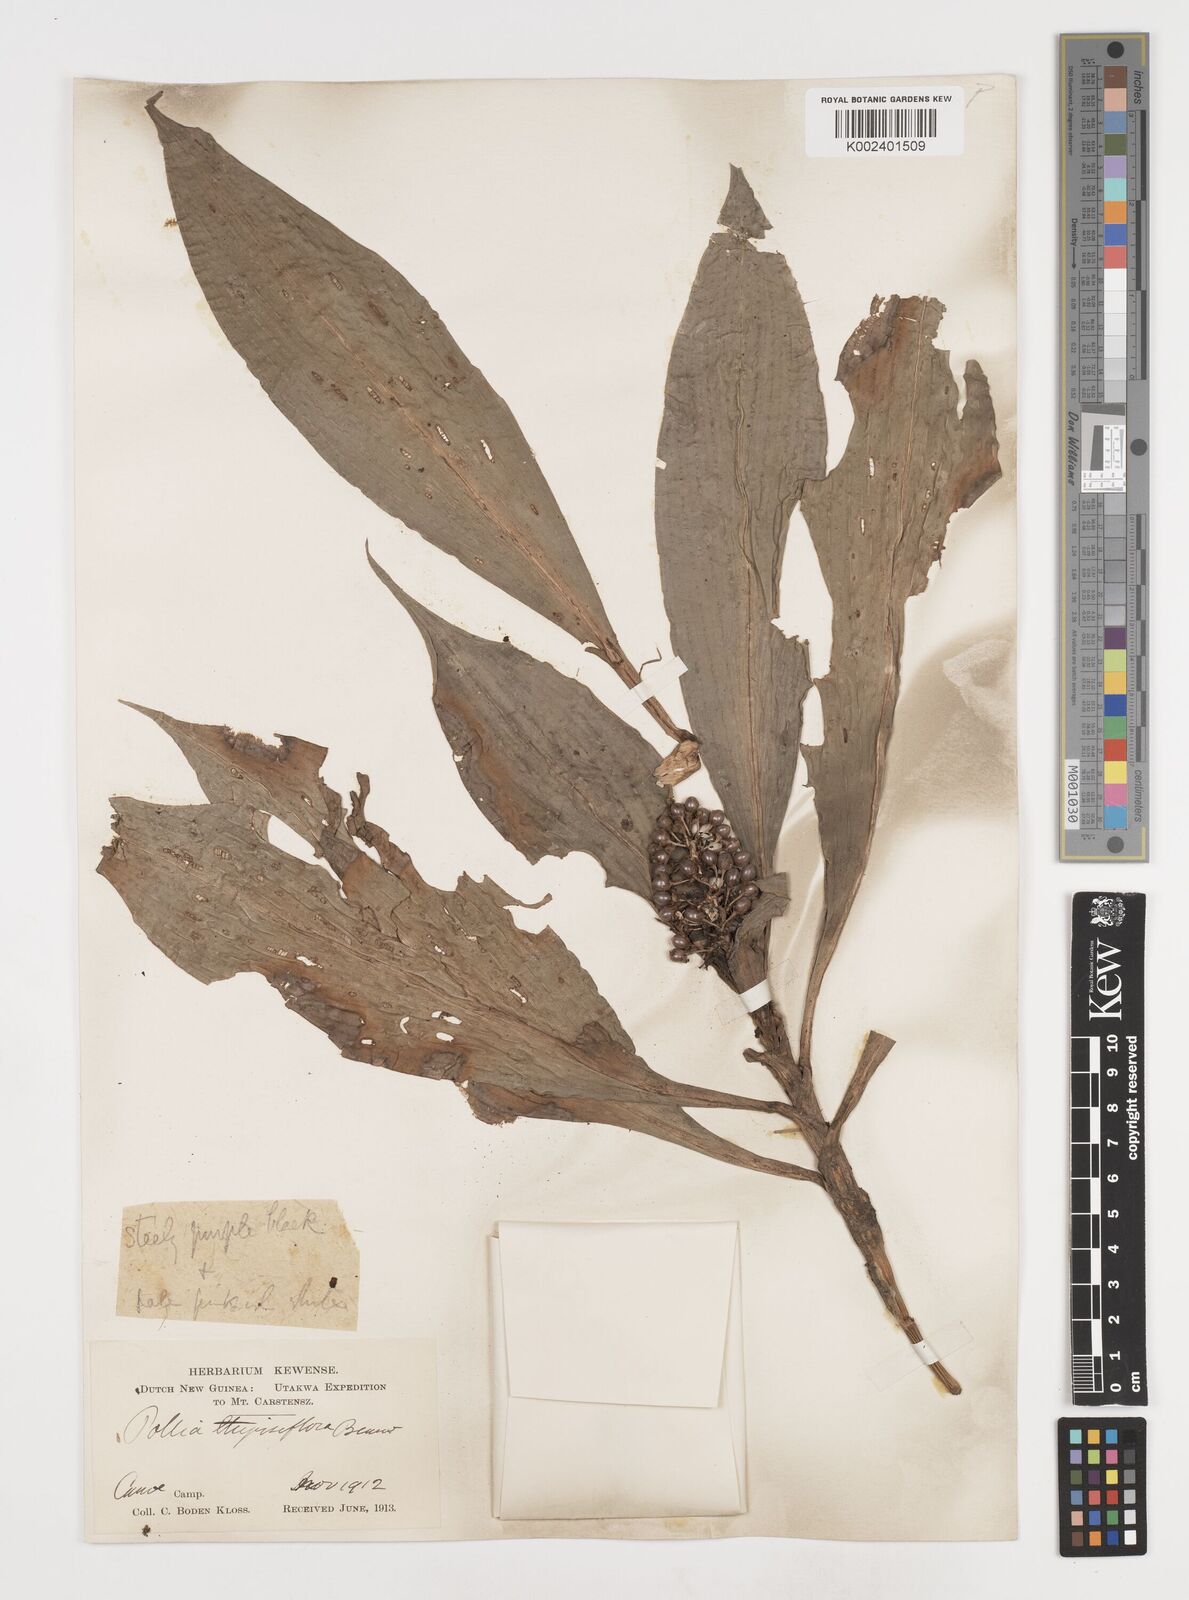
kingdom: Plantae
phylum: Tracheophyta
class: Liliopsida
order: Commelinales
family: Commelinaceae
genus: Pollia
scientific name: Pollia thyrsiflora
